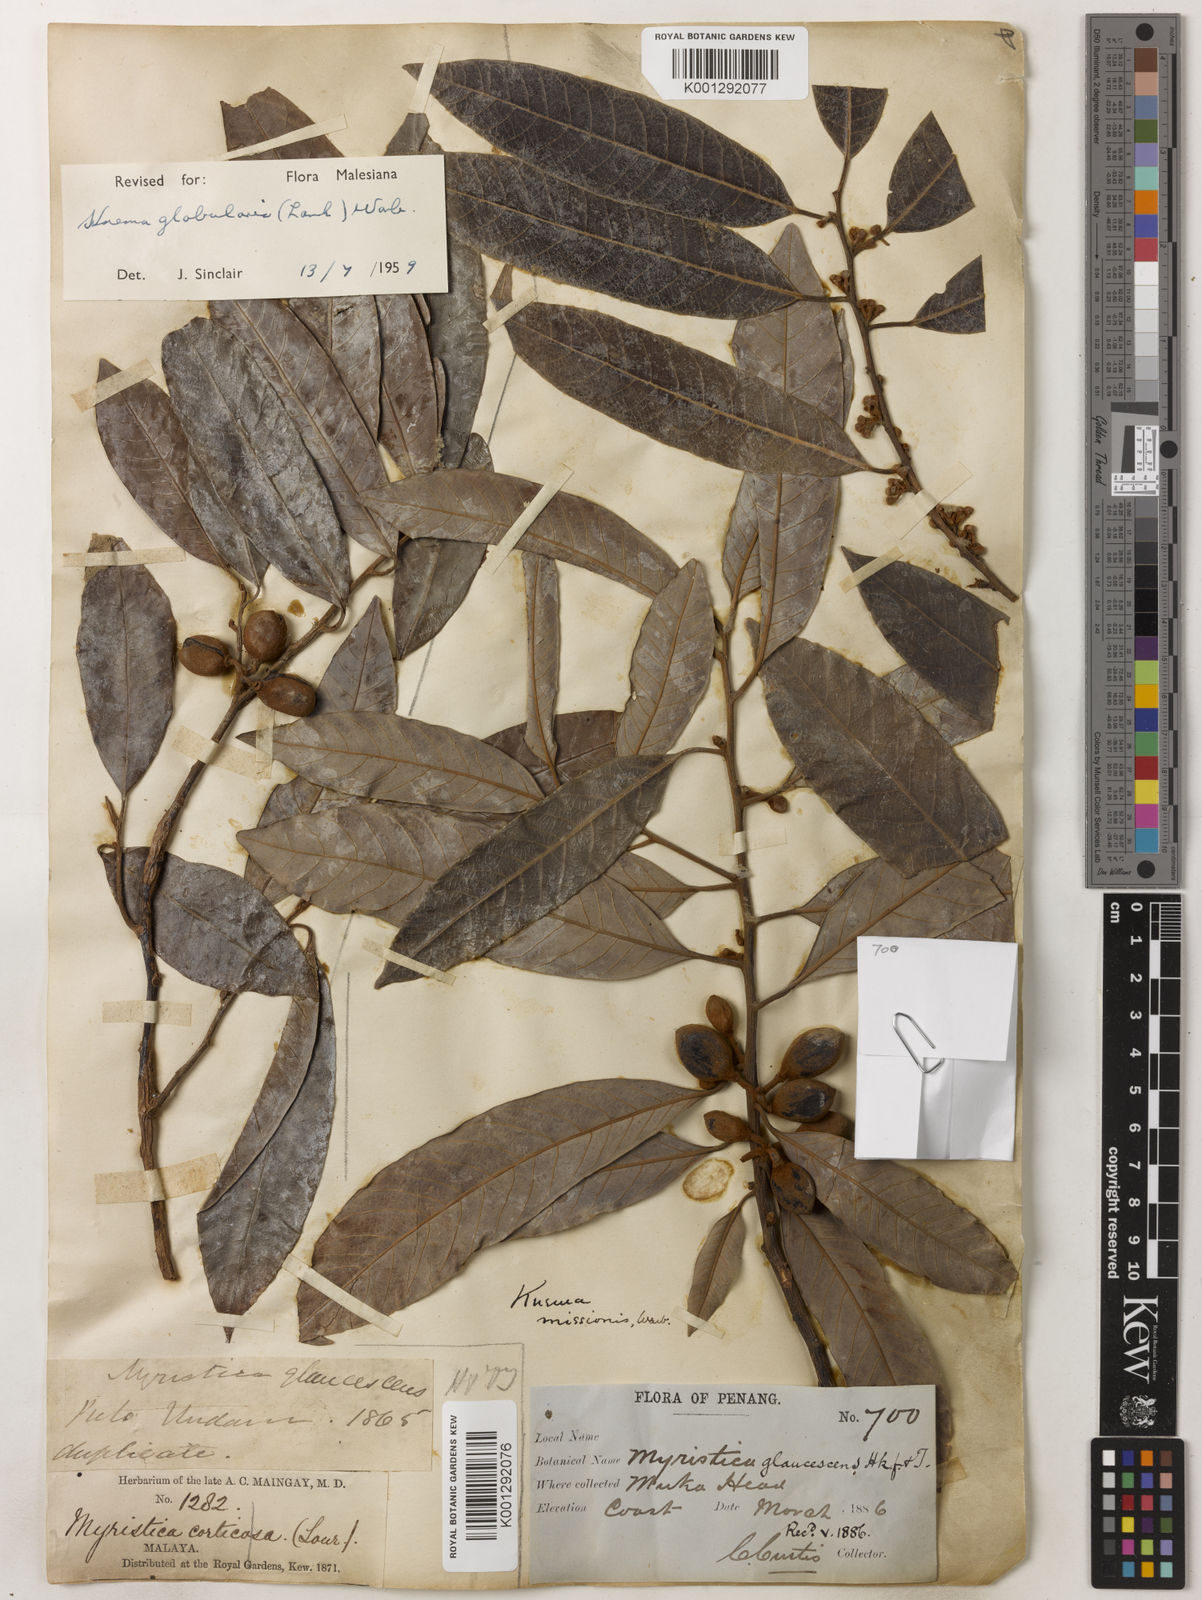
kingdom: Plantae
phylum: Tracheophyta
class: Magnoliopsida
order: Magnoliales
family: Myristicaceae
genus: Knema
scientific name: Knema globularia
